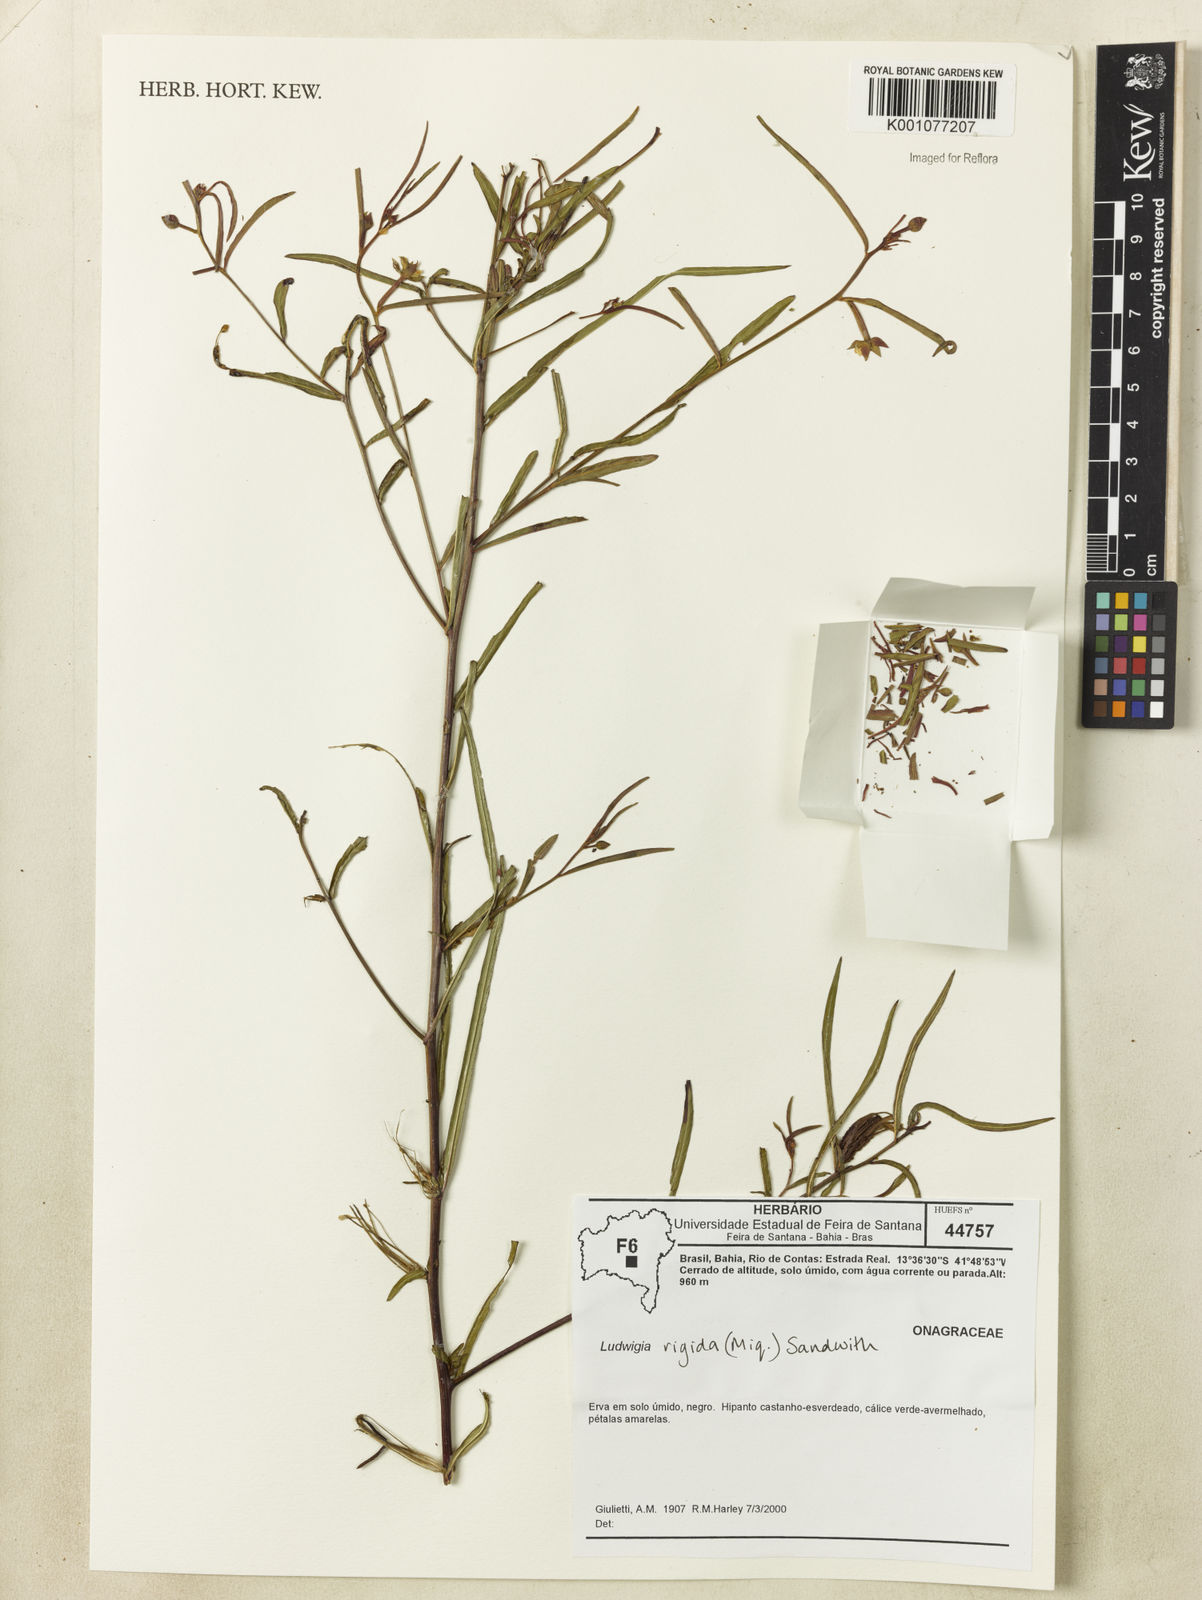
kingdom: Plantae
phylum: Tracheophyta
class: Magnoliopsida
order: Myrtales
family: Onagraceae
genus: Ludwigia
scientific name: Ludwigia rigida
